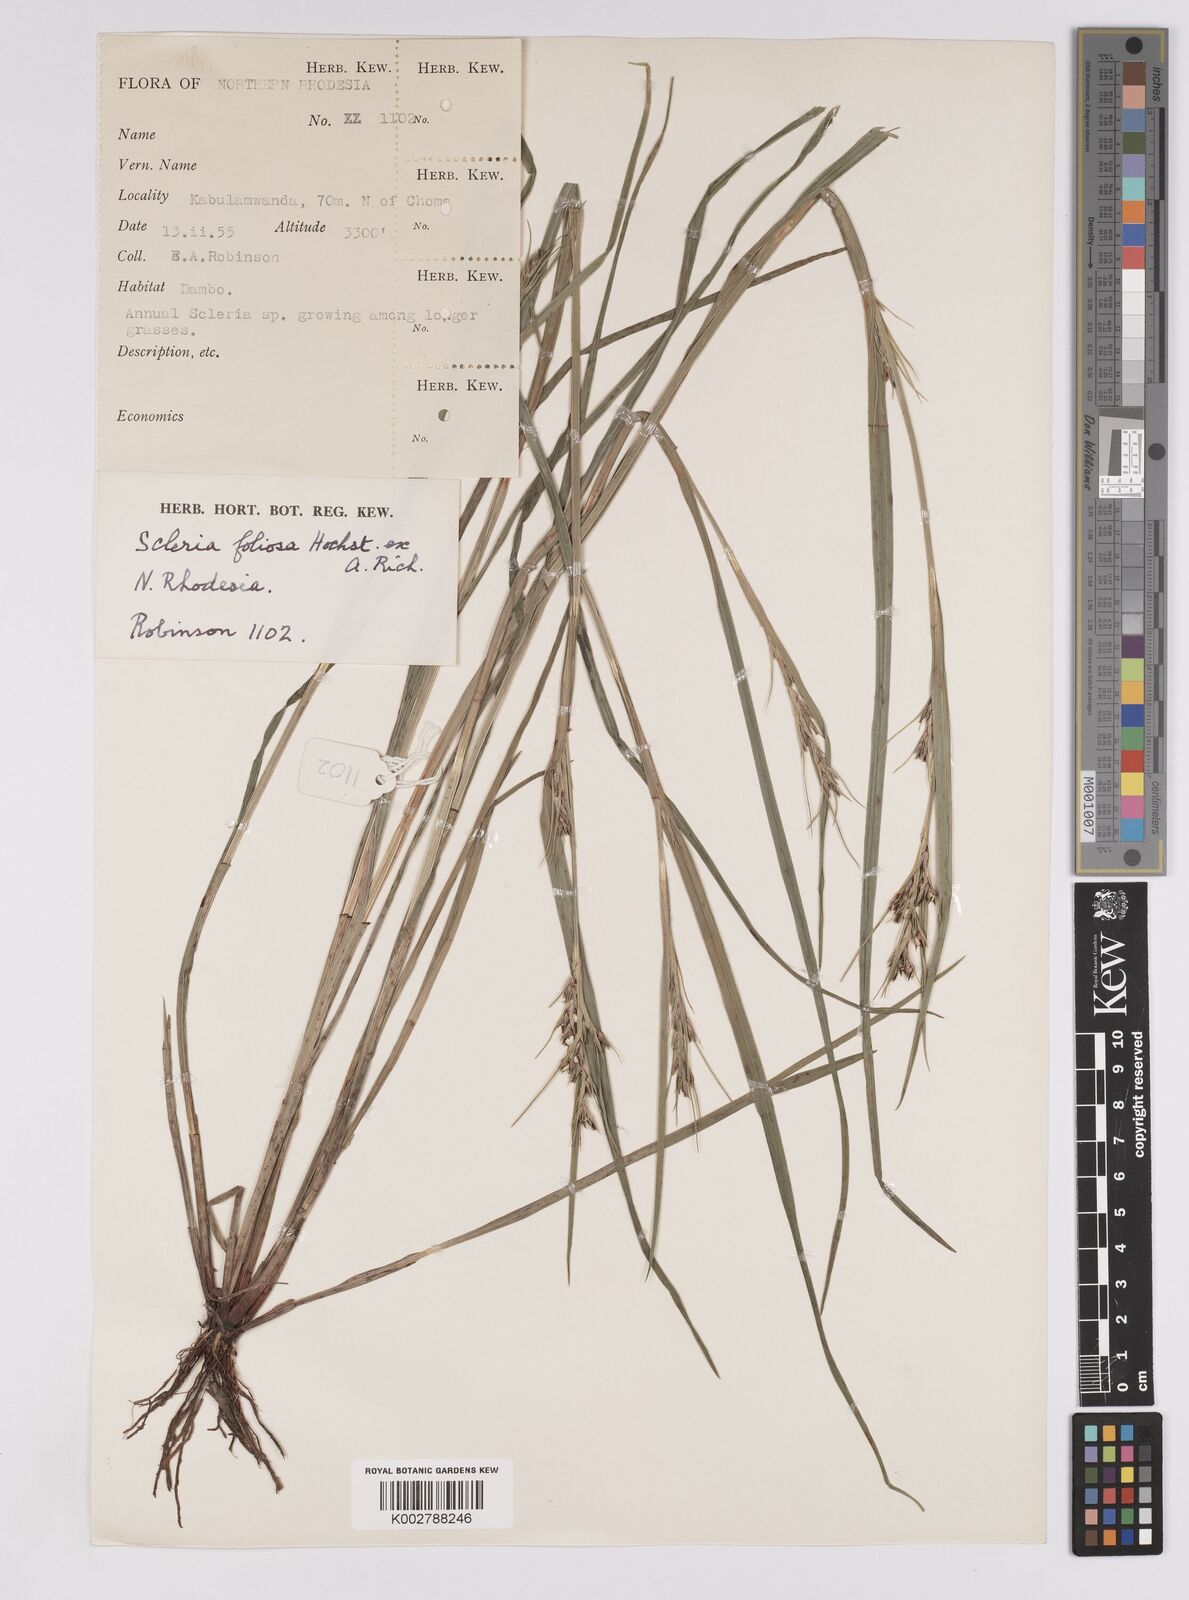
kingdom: Plantae
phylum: Tracheophyta
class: Liliopsida
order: Poales
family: Cyperaceae
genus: Scleria
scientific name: Scleria foliosa
